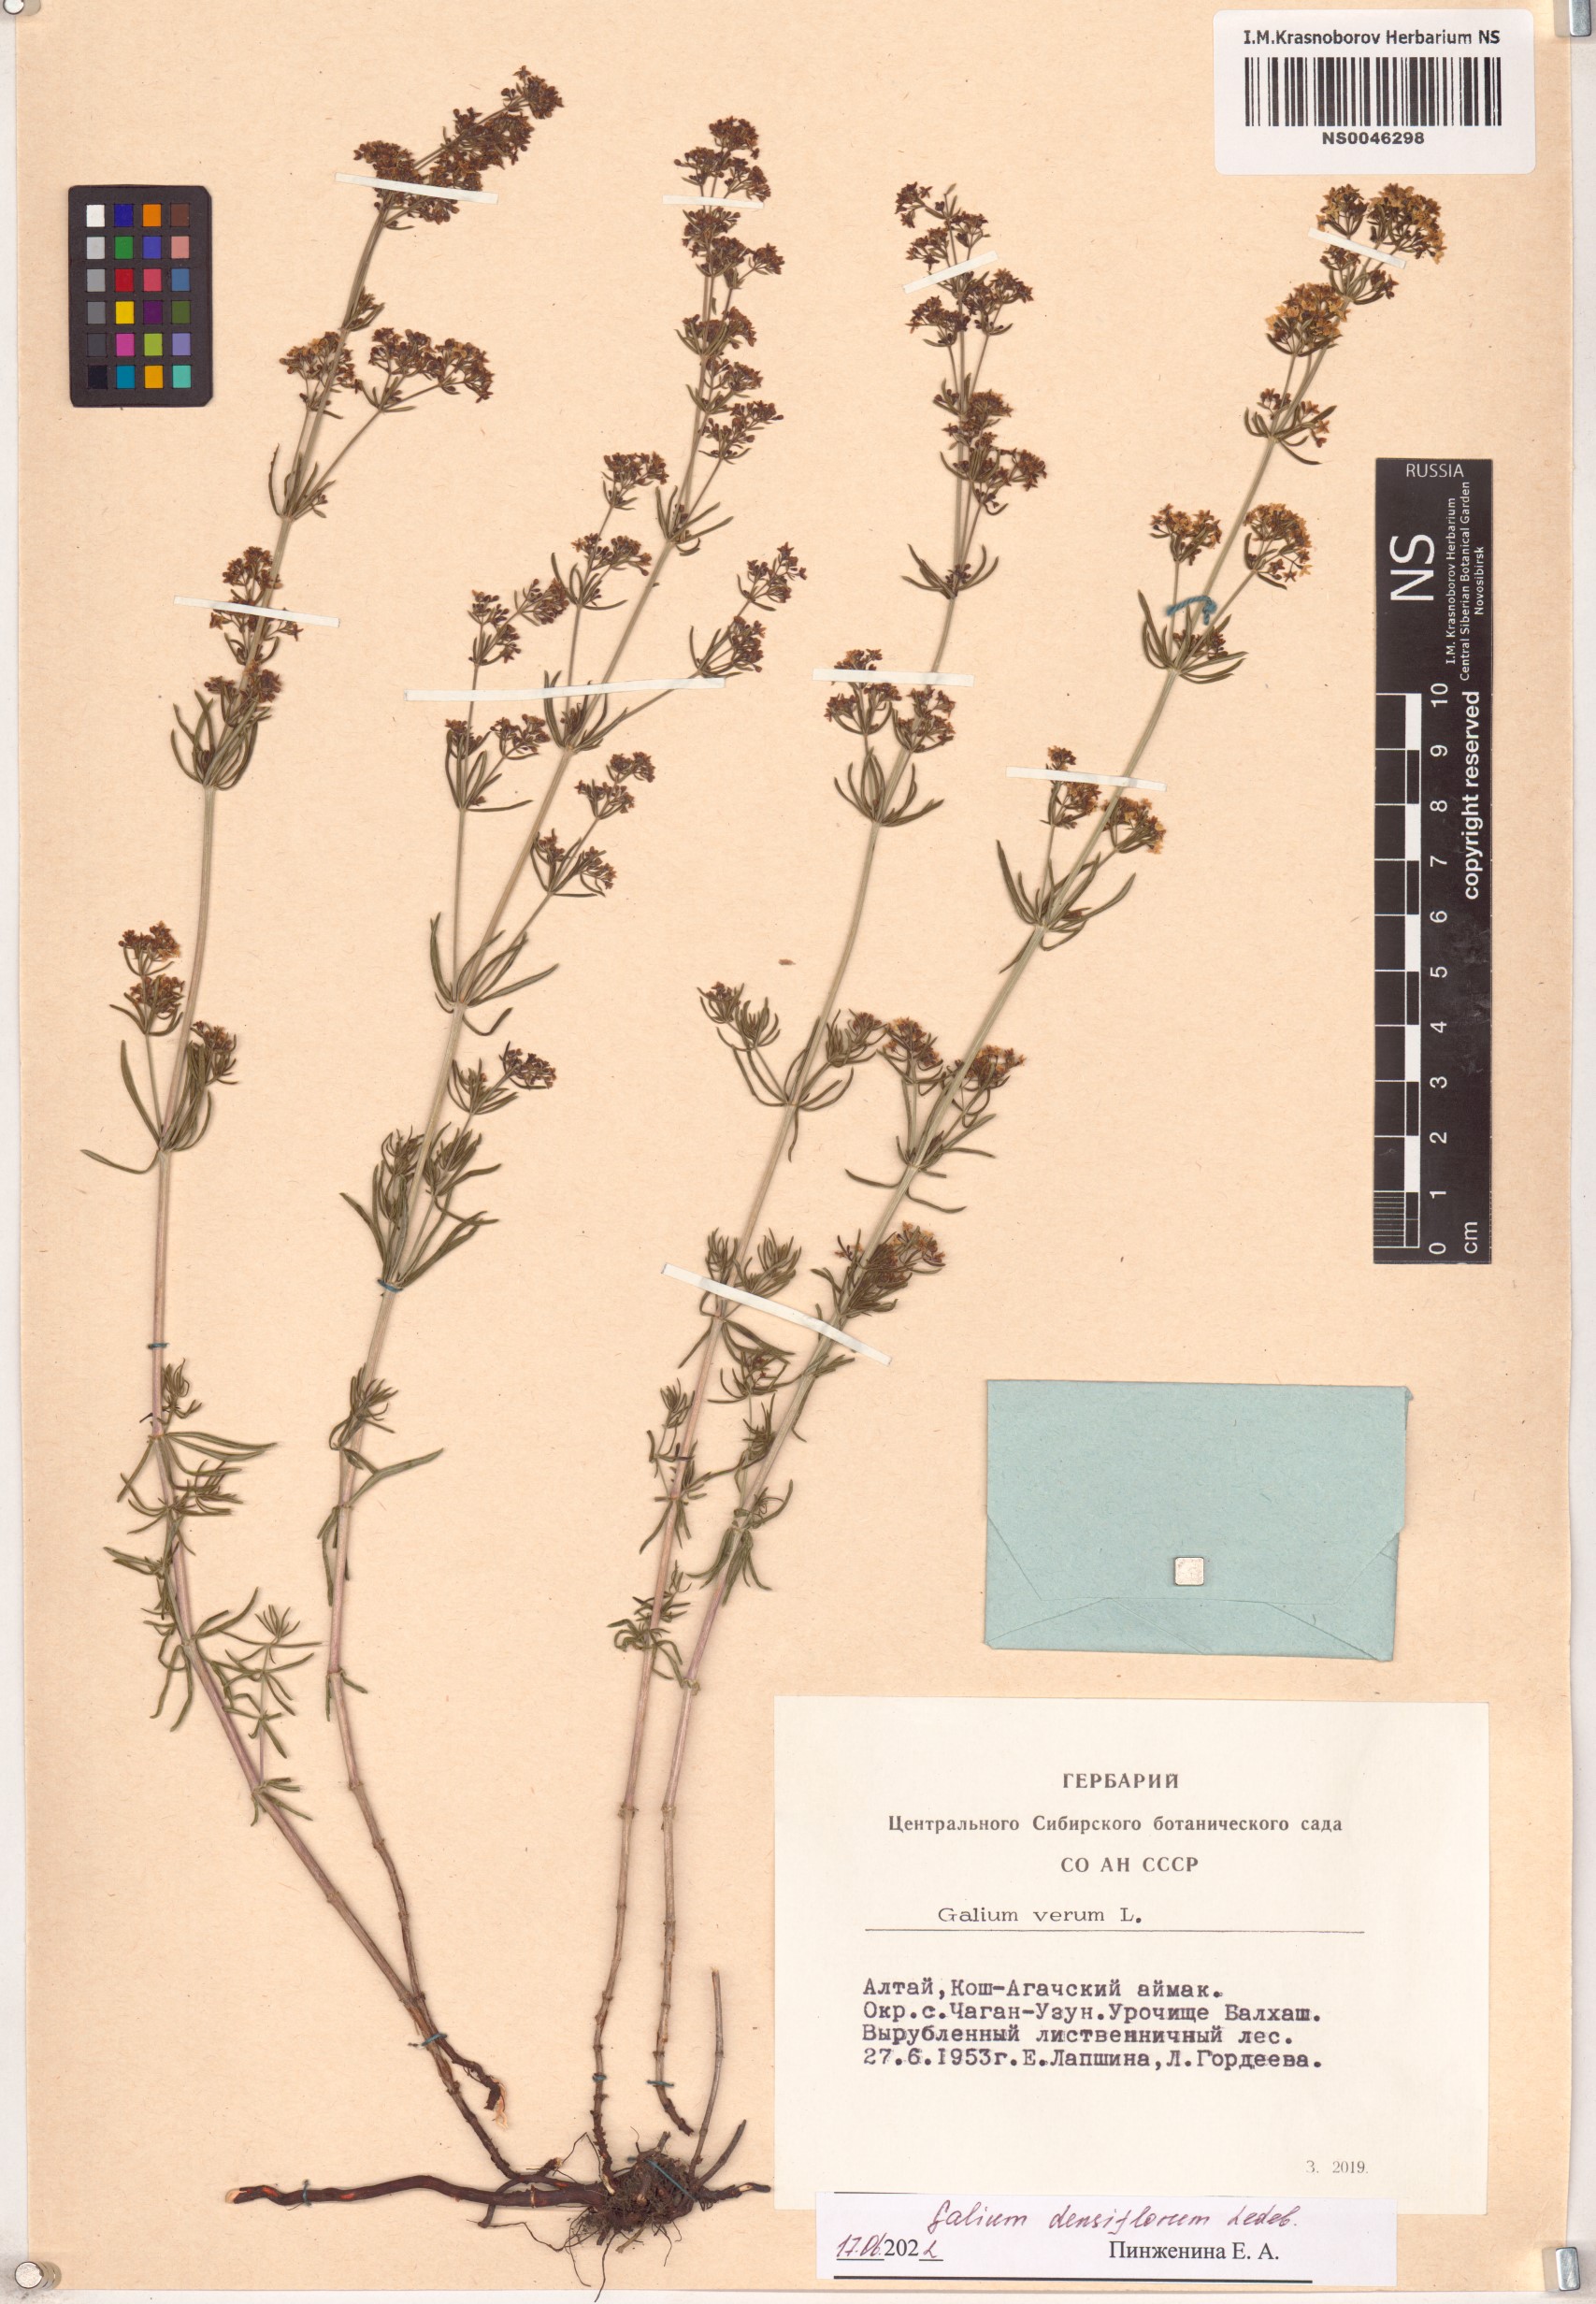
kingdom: Plantae
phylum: Tracheophyta
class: Magnoliopsida
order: Gentianales
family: Rubiaceae
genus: Galium
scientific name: Galium densiflorum
